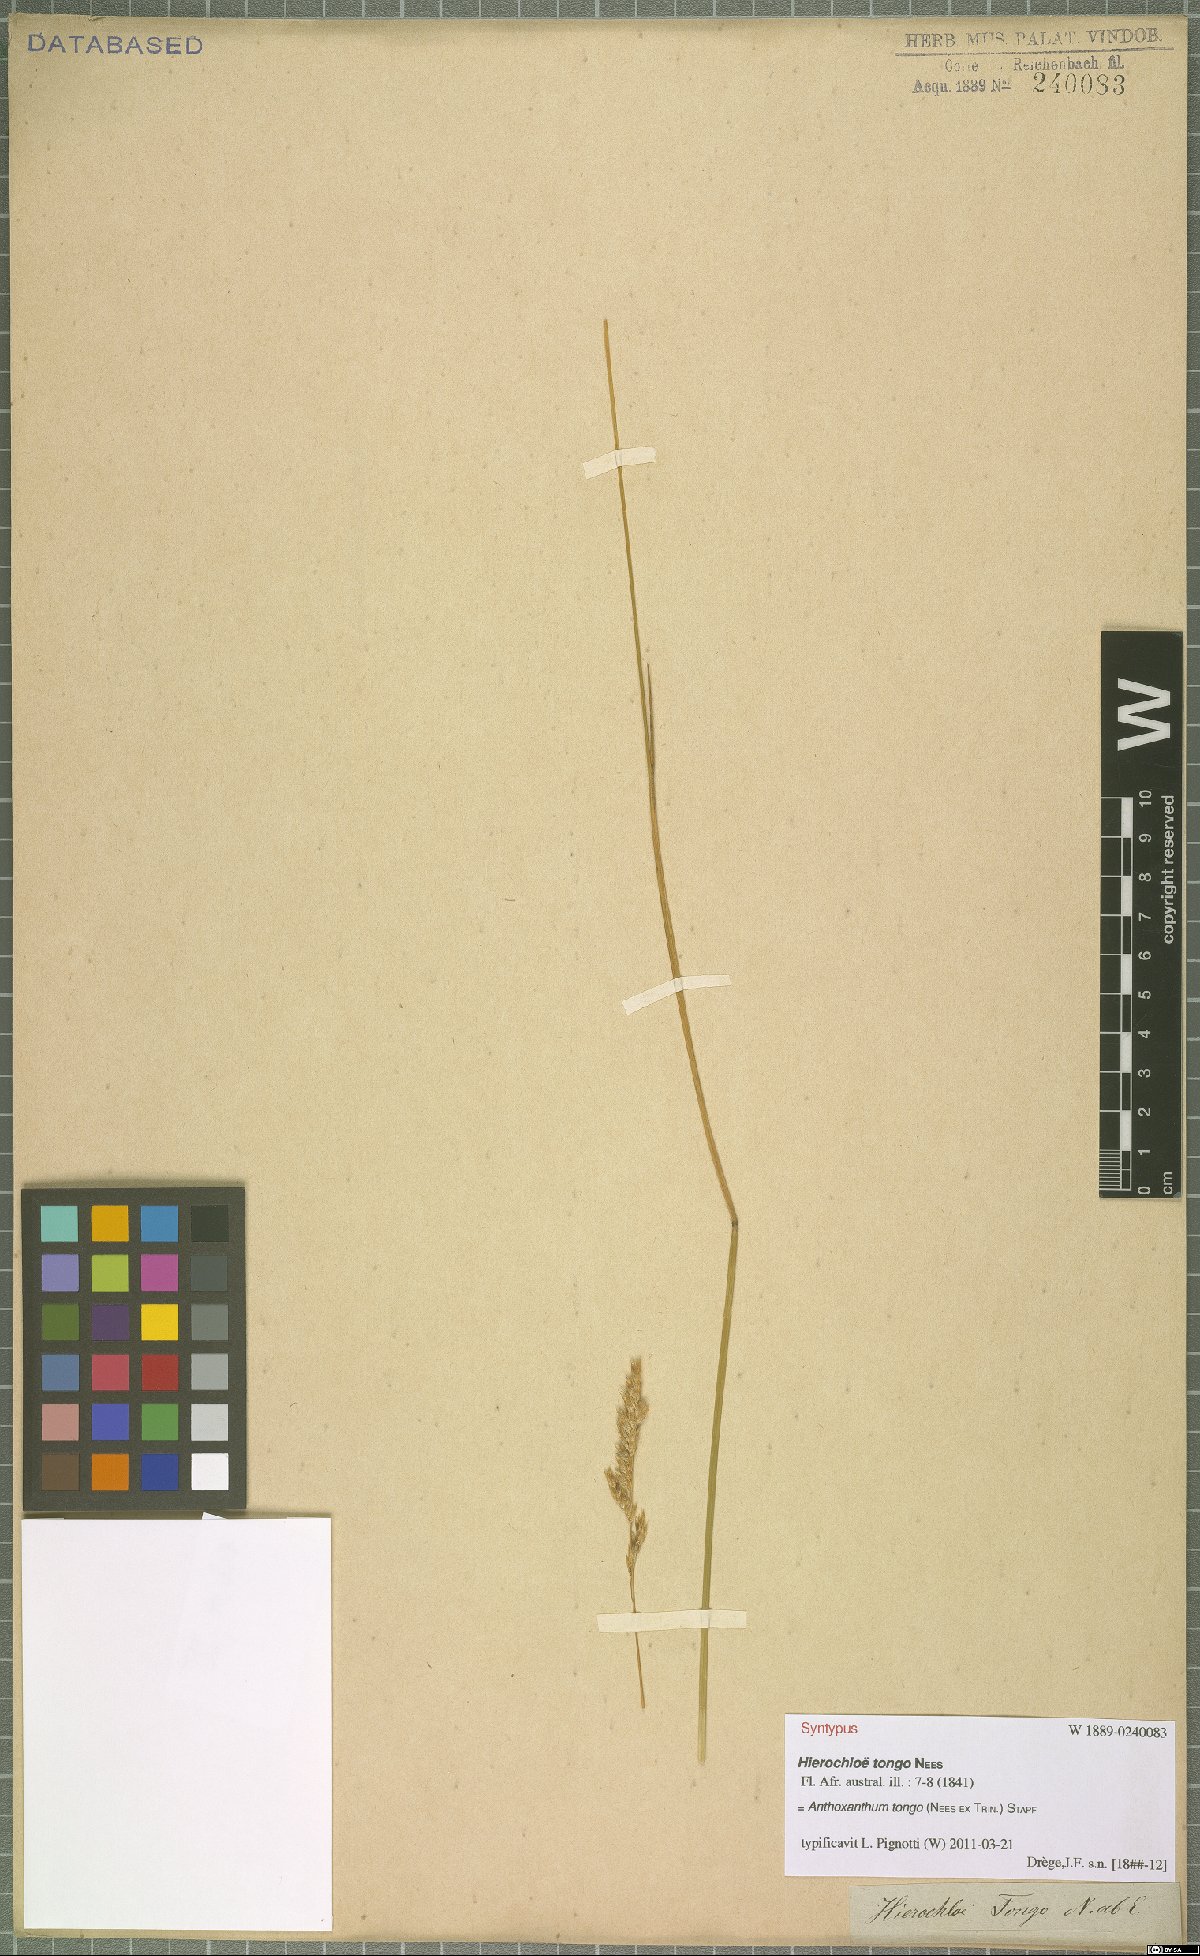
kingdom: Plantae
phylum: Tracheophyta
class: Liliopsida
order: Poales
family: Poaceae
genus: Anthoxanthum
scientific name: Anthoxanthum tongo
